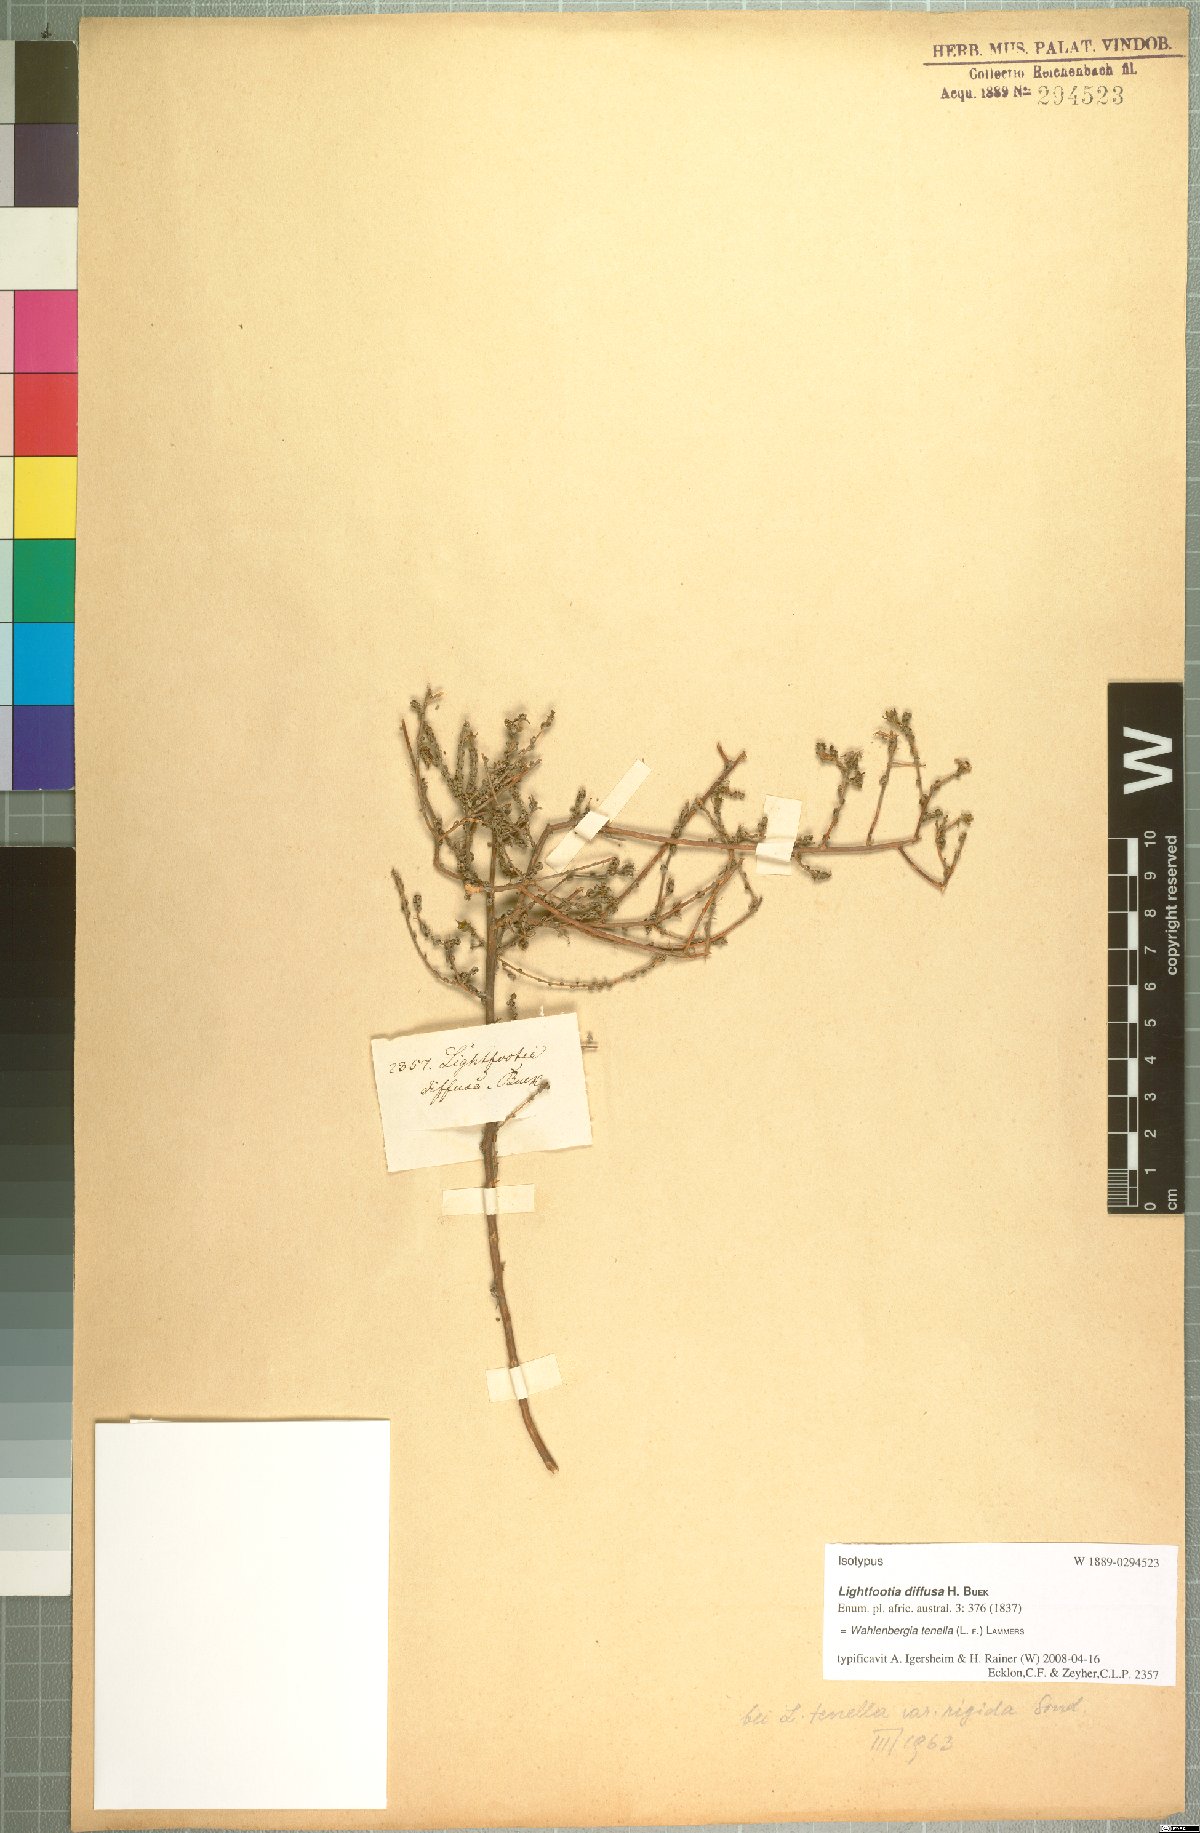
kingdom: Plantae
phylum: Tracheophyta
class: Magnoliopsida
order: Asterales
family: Campanulaceae
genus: Wahlenbergia
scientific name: Wahlenbergia tenella
